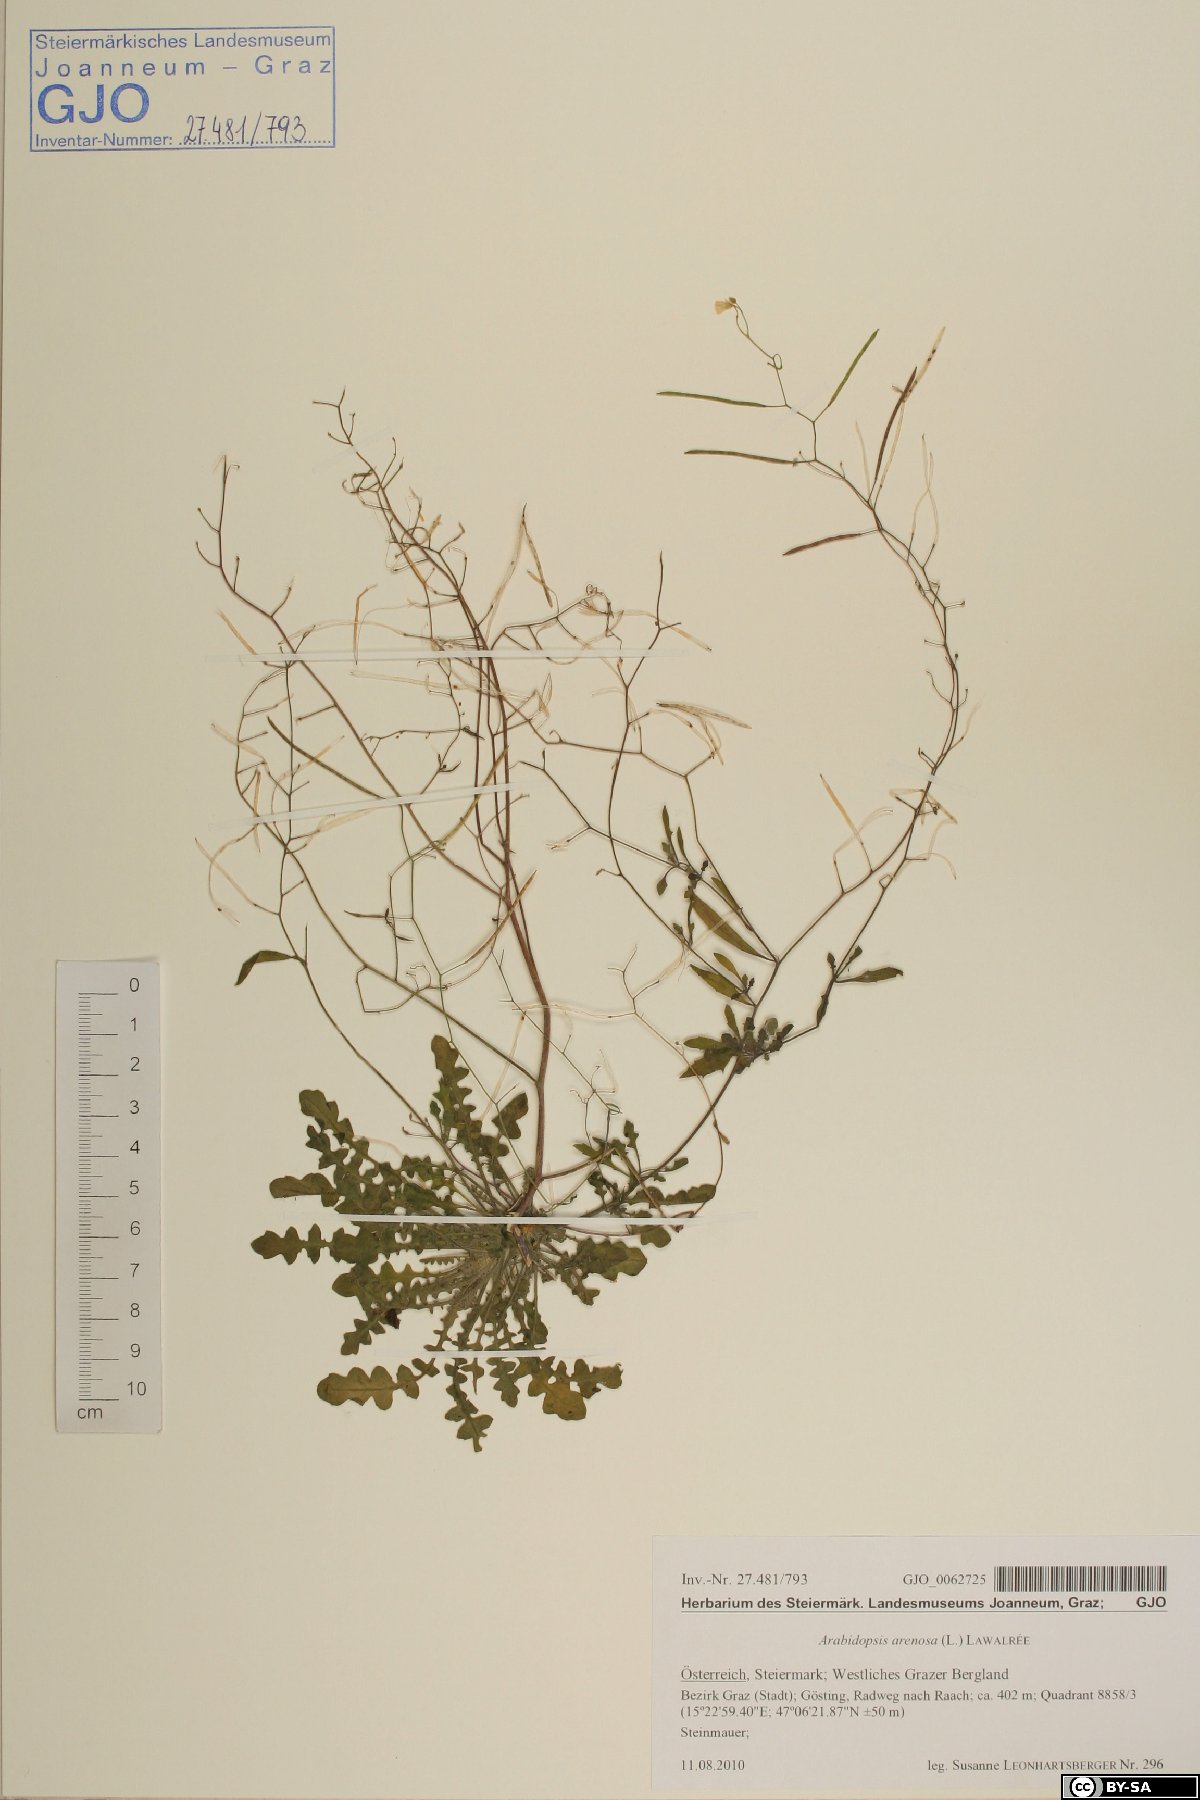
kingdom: Plantae
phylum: Tracheophyta
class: Magnoliopsida
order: Brassicales
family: Brassicaceae
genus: Arabidopsis
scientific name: Arabidopsis arenosa
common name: Sand rock-cress
